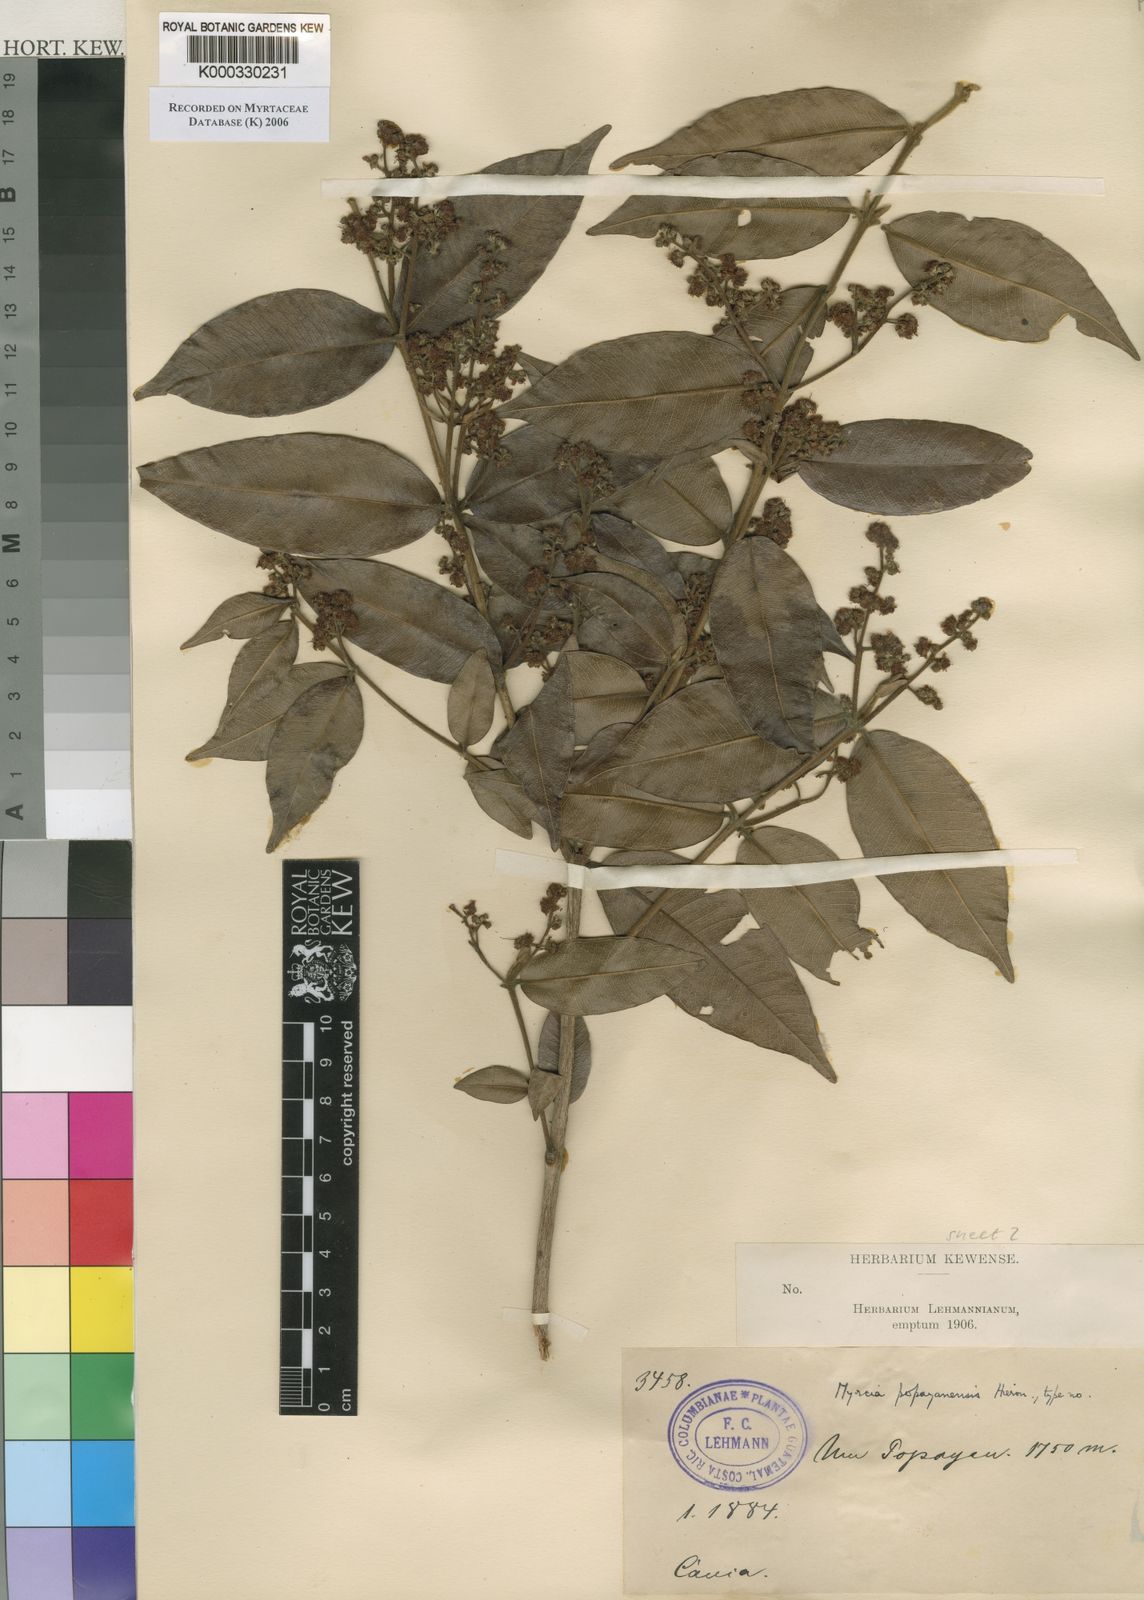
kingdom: Plantae
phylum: Tracheophyta
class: Magnoliopsida
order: Myrtales
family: Myrtaceae
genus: Myrcia
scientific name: Myrcia popayanensis
